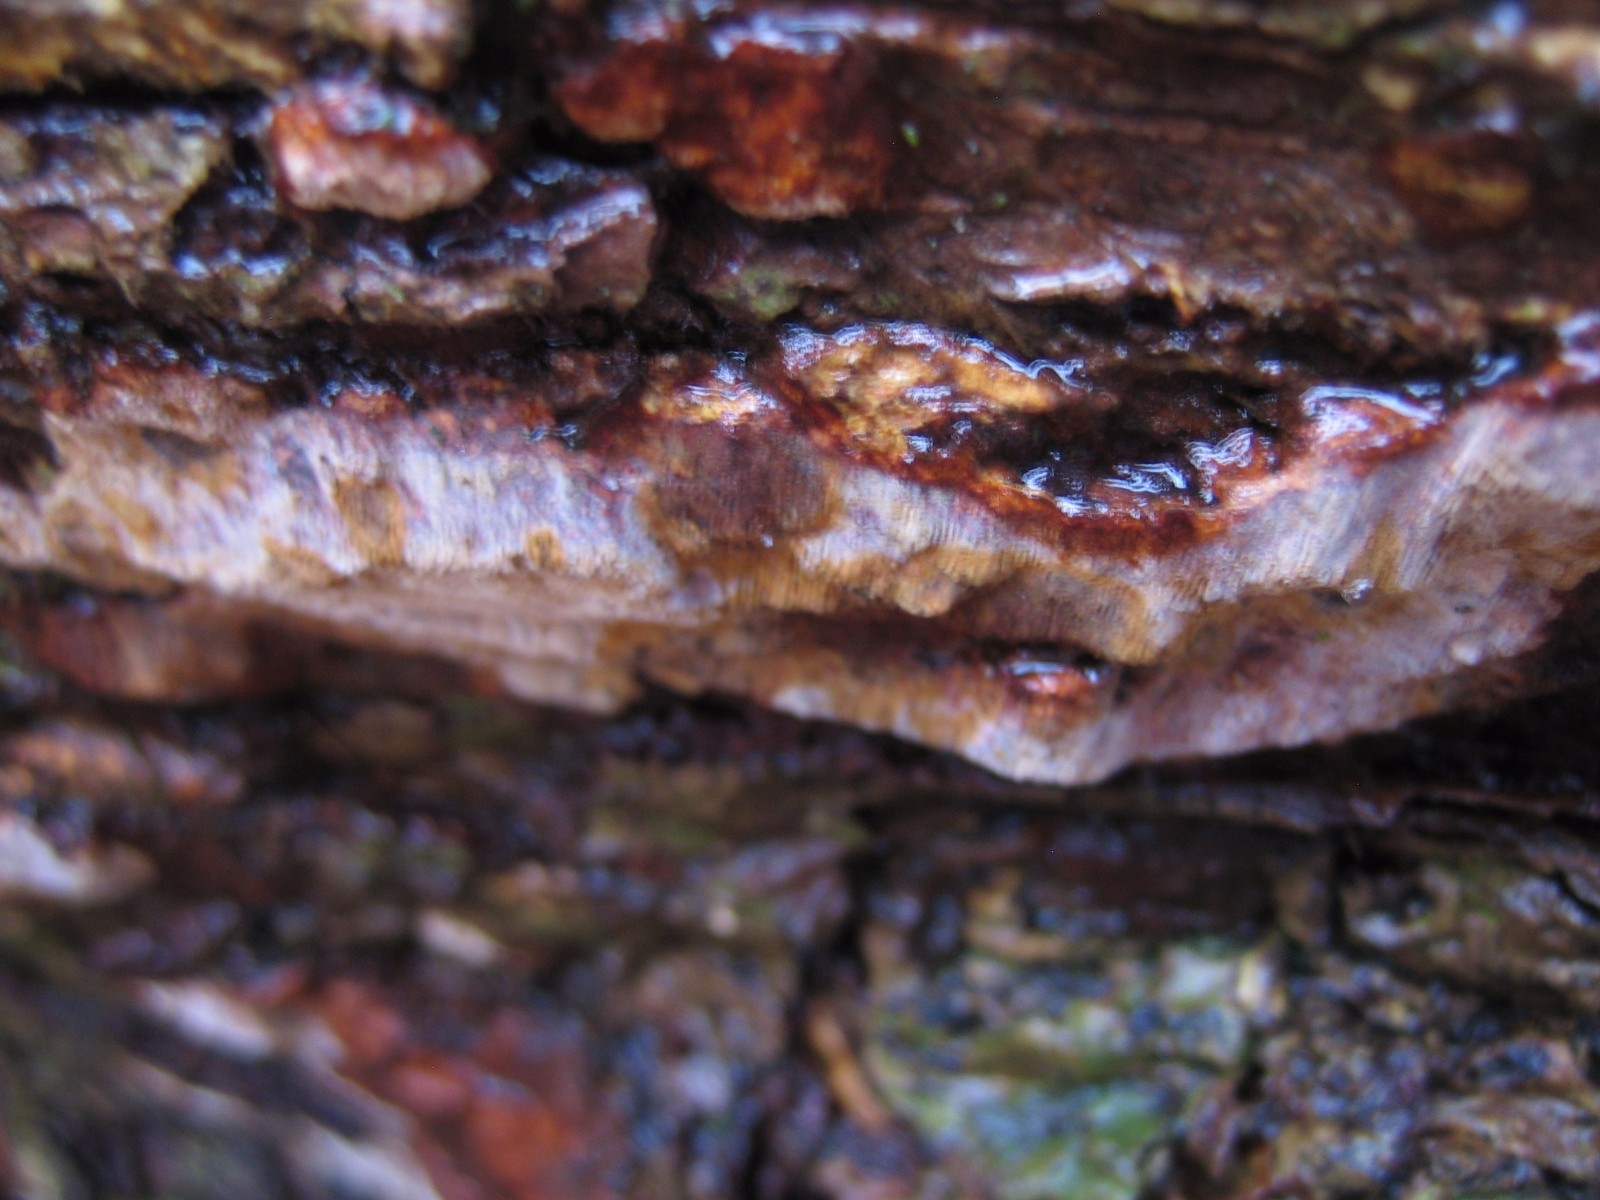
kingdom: Fungi
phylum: Basidiomycota
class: Agaricomycetes
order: Hymenochaetales
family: Hymenochaetaceae
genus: Fuscoporia
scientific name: Fuscoporia ferrea
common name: skorpe-ildporesvamp
